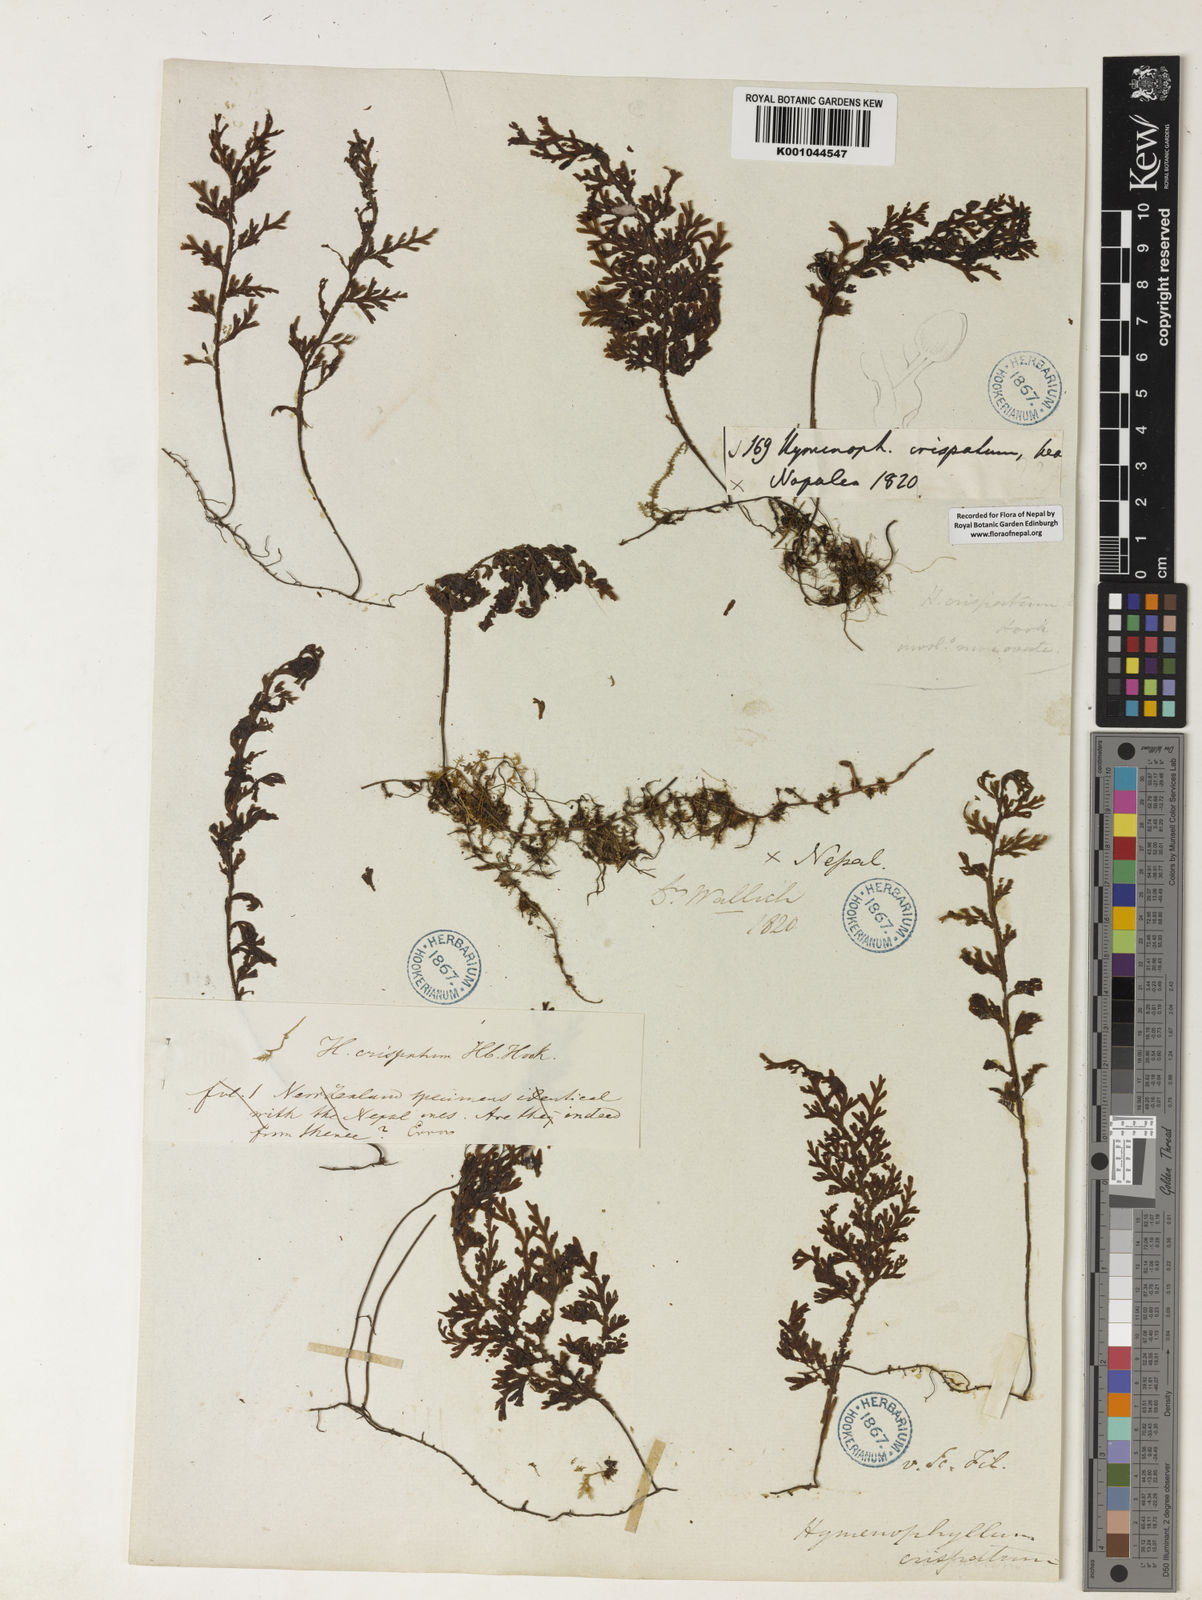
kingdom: Plantae
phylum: Tracheophyta
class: Polypodiopsida
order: Hymenophyllales
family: Hymenophyllaceae
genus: Hymenophyllum
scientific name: Hymenophyllum javanicum
